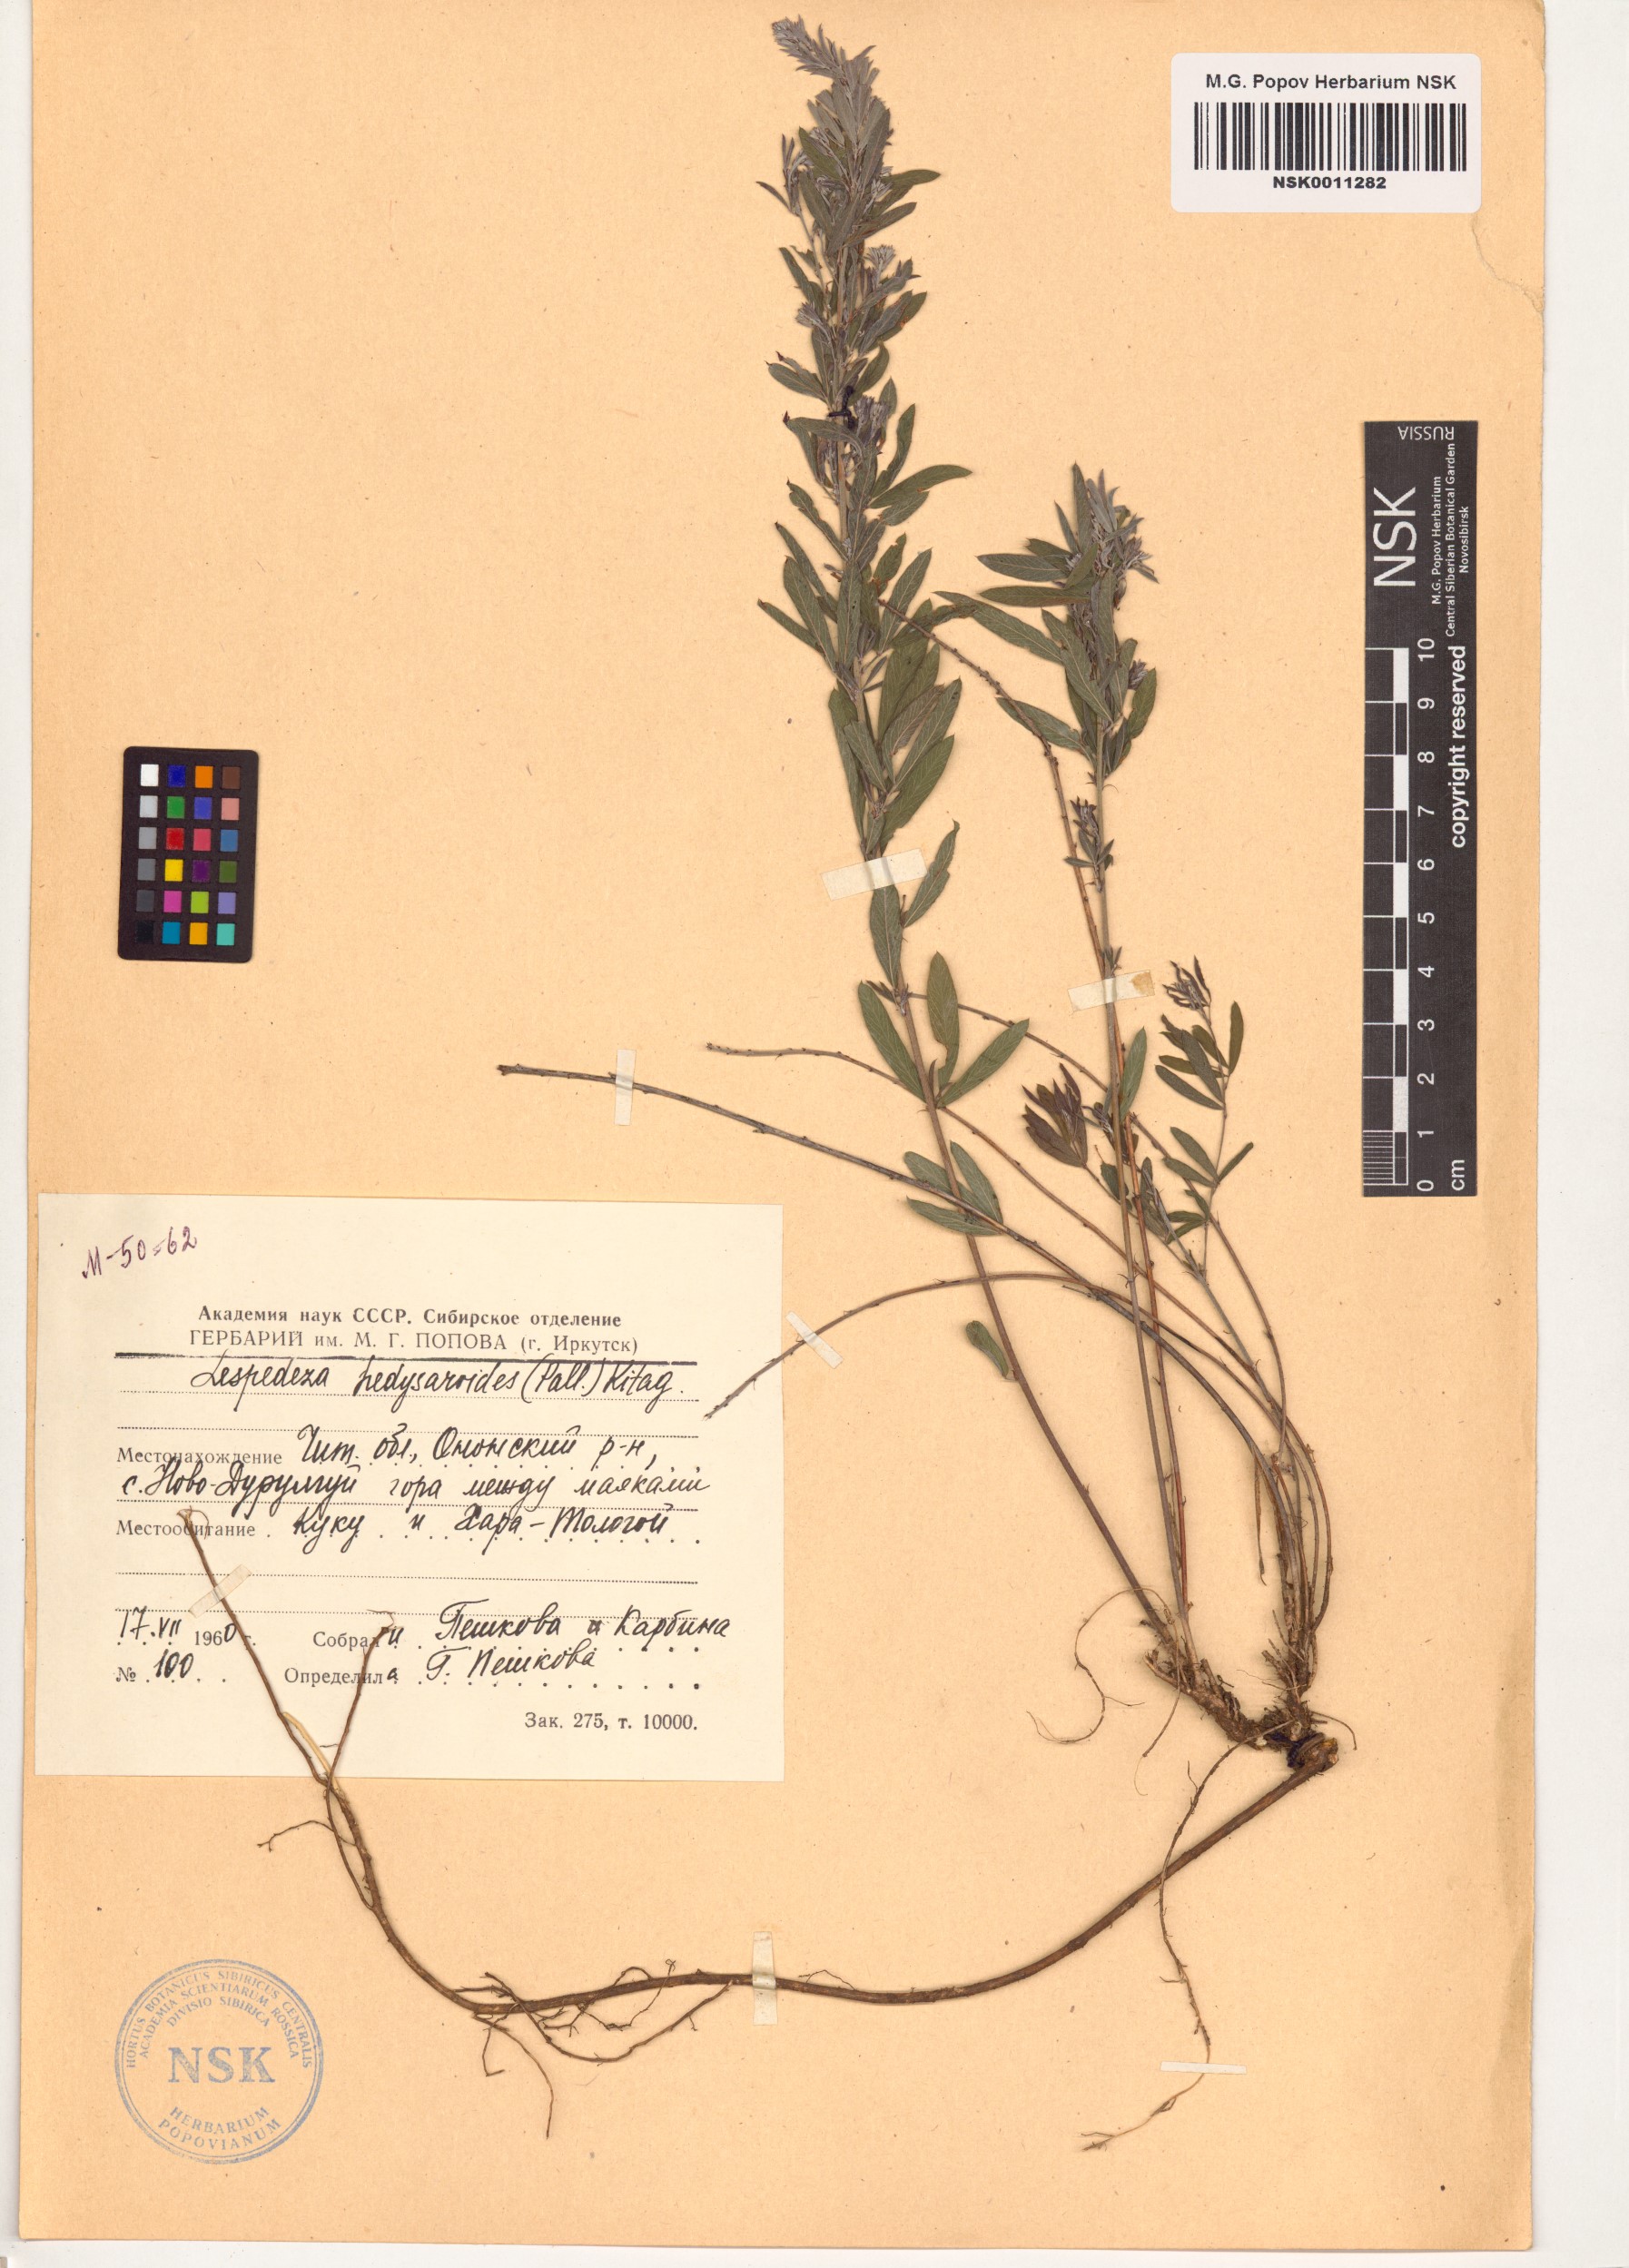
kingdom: Plantae
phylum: Tracheophyta
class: Magnoliopsida
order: Fabales
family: Fabaceae
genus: Lespedeza
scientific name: Lespedeza juncea
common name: Siberian lespedeza
